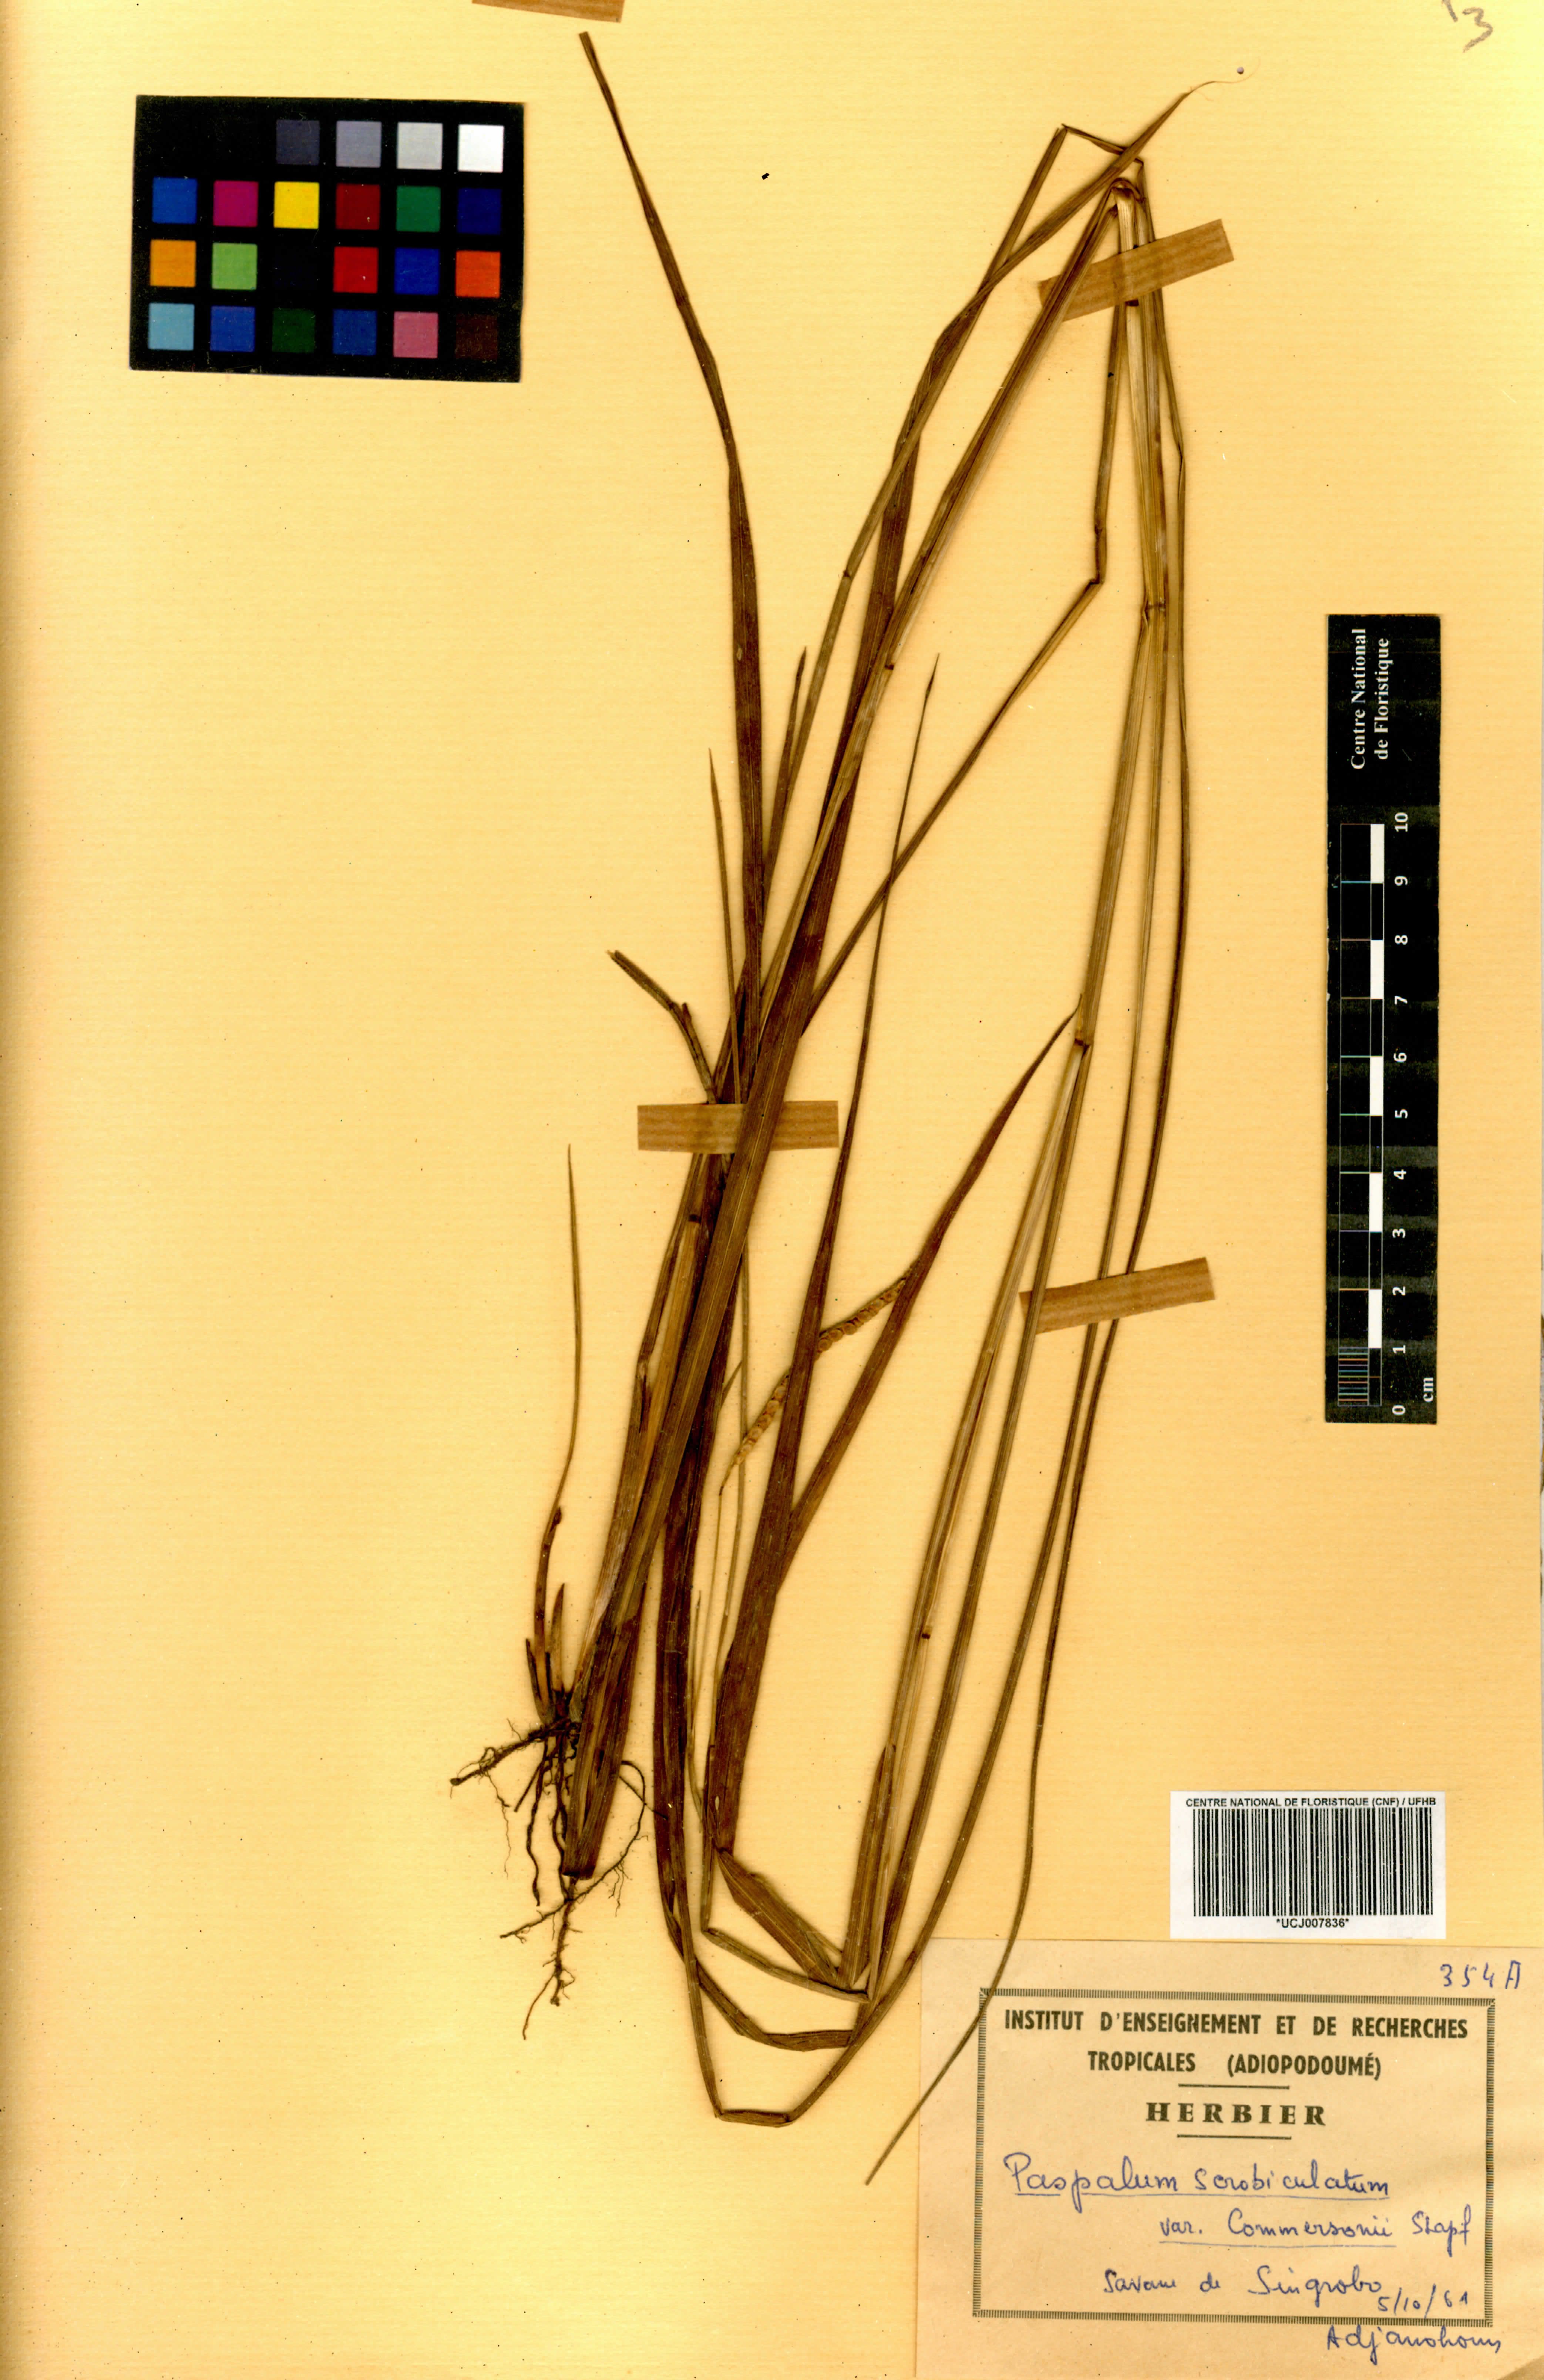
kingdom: Plantae
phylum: Tracheophyta
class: Liliopsida
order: Poales
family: Poaceae
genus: Paspalum
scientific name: Paspalum scrobiculatum
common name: Kodo millet
